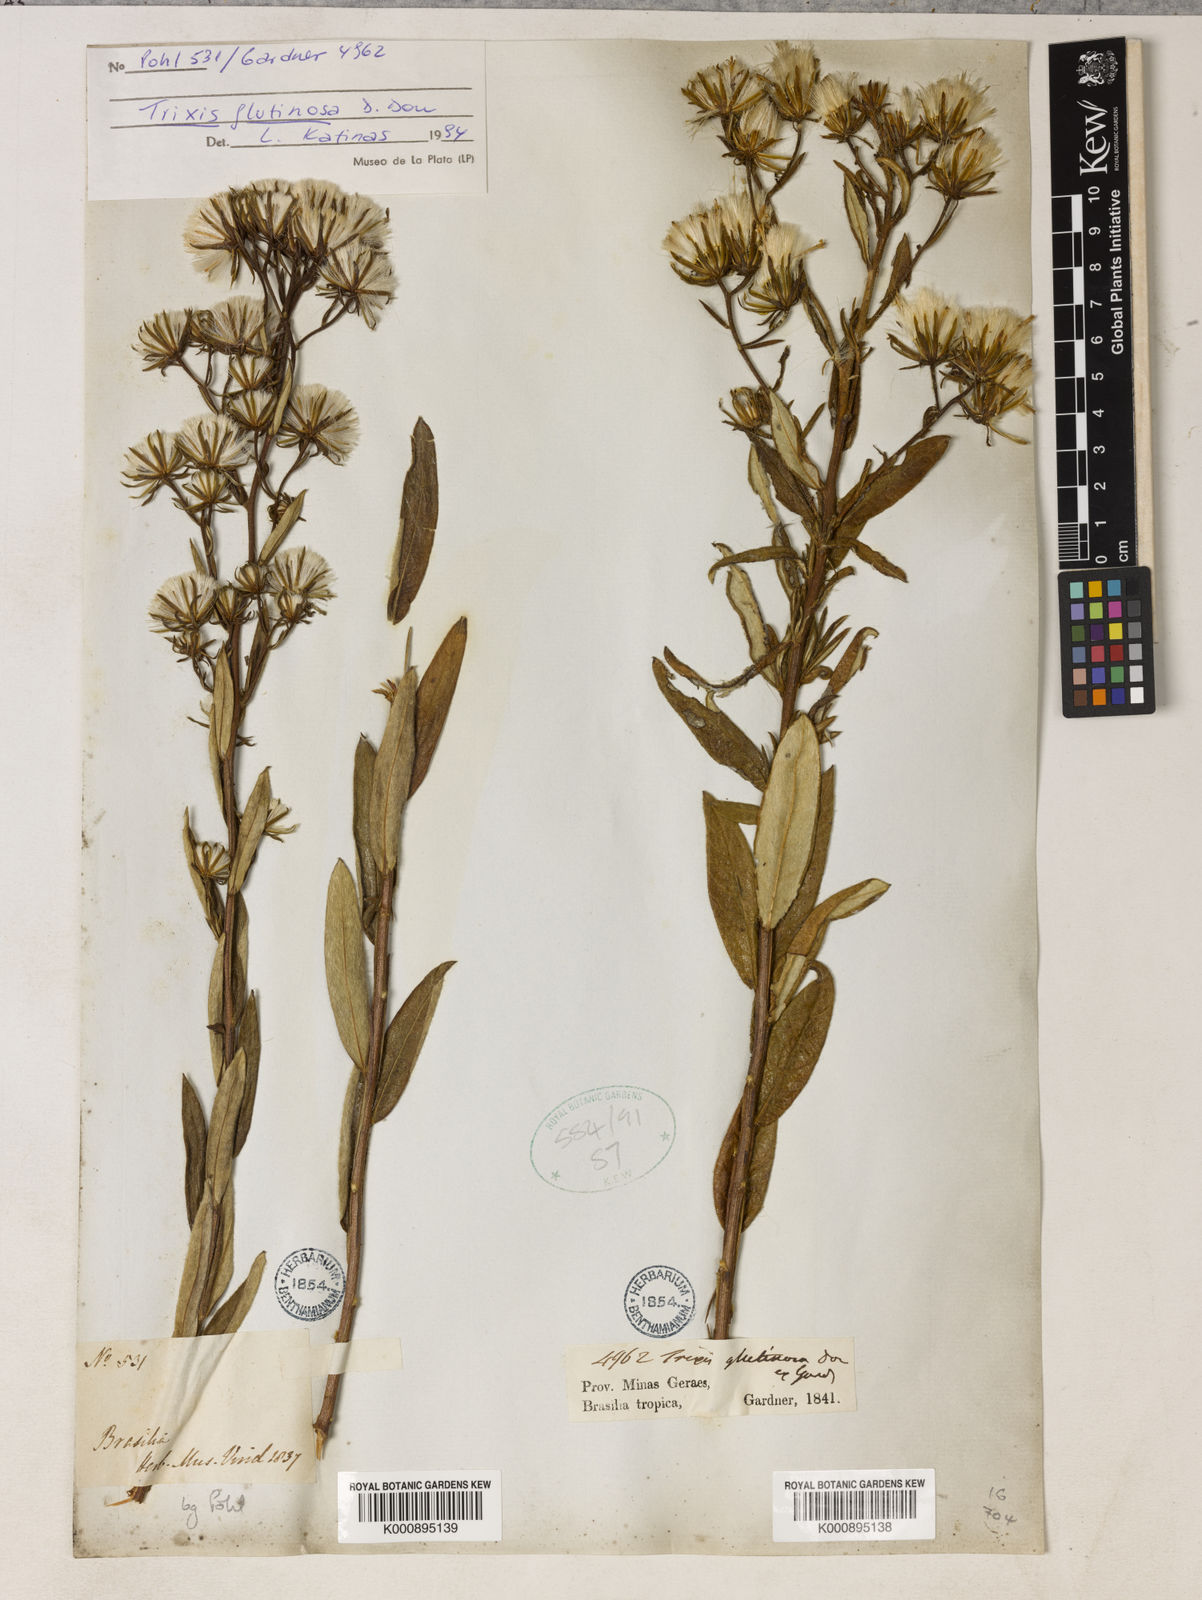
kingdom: Plantae
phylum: Tracheophyta
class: Magnoliopsida
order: Asterales
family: Asteraceae
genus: Trixis
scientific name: Trixis glutinosa
